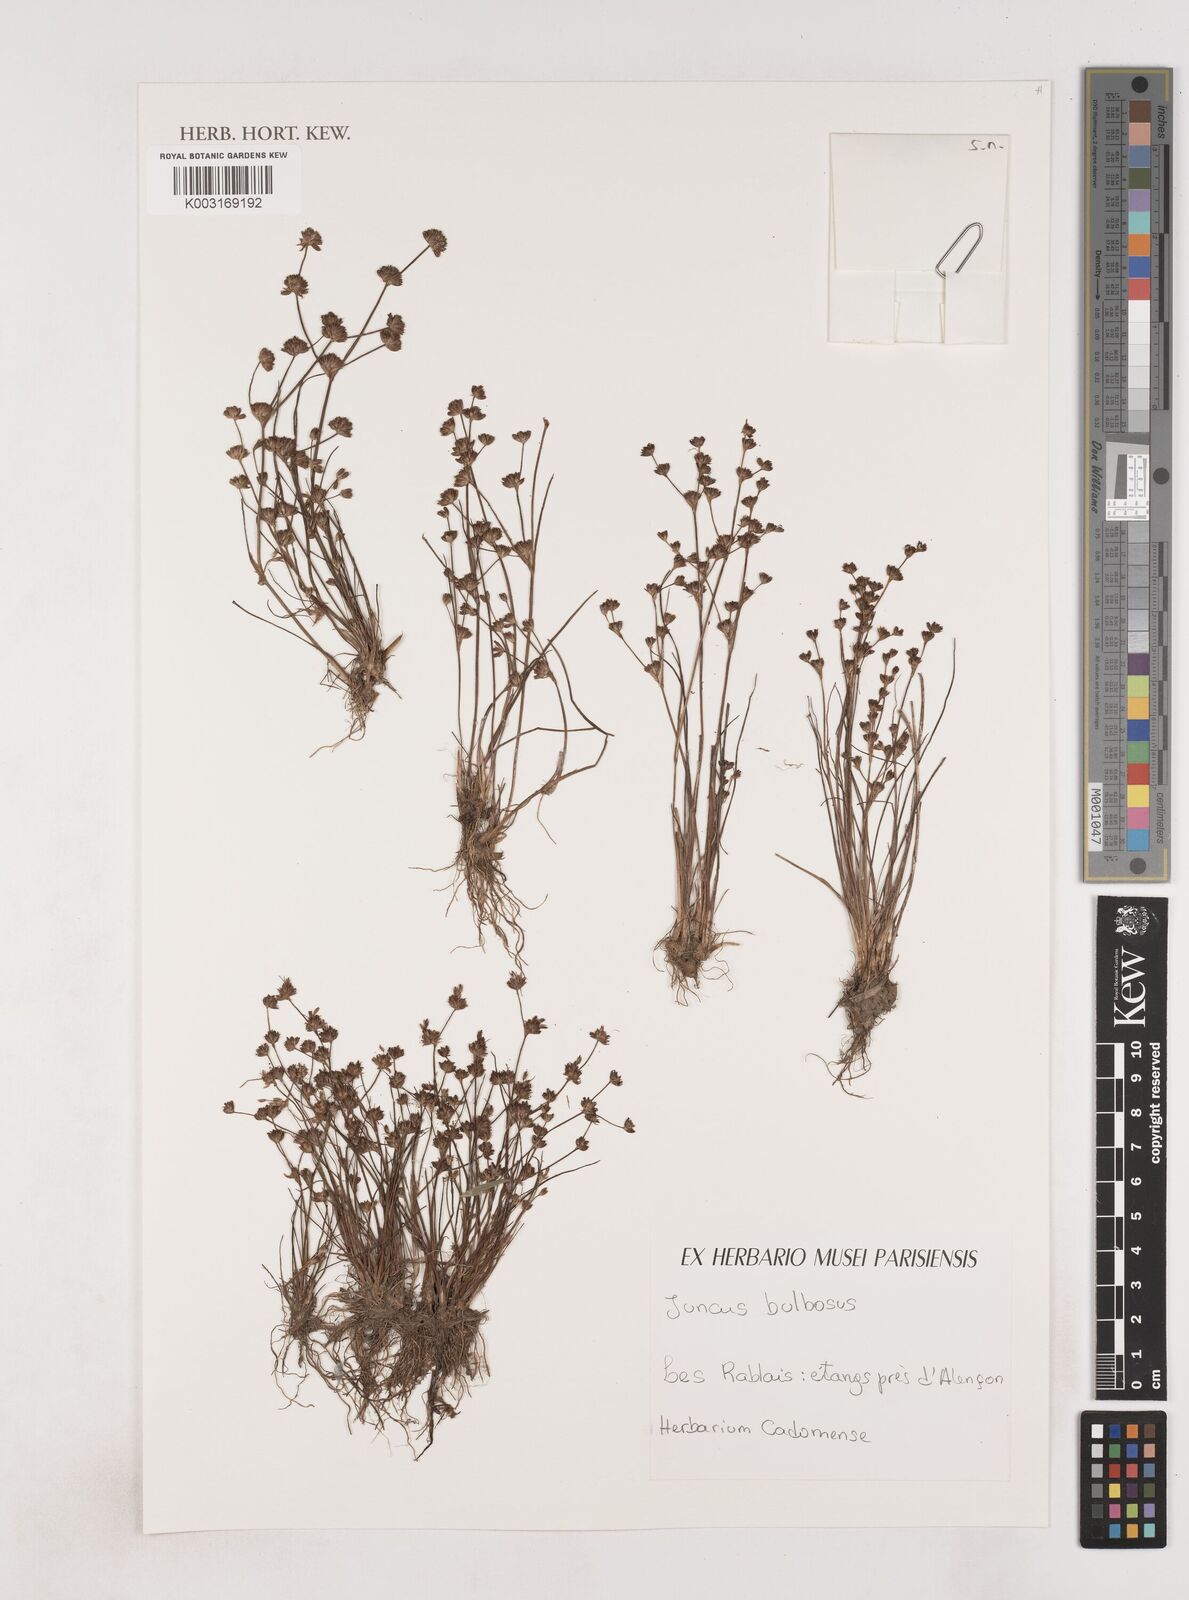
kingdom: Plantae
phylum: Tracheophyta
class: Liliopsida
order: Poales
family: Juncaceae
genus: Juncus
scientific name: Juncus bulbosus
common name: Bulbous rush
